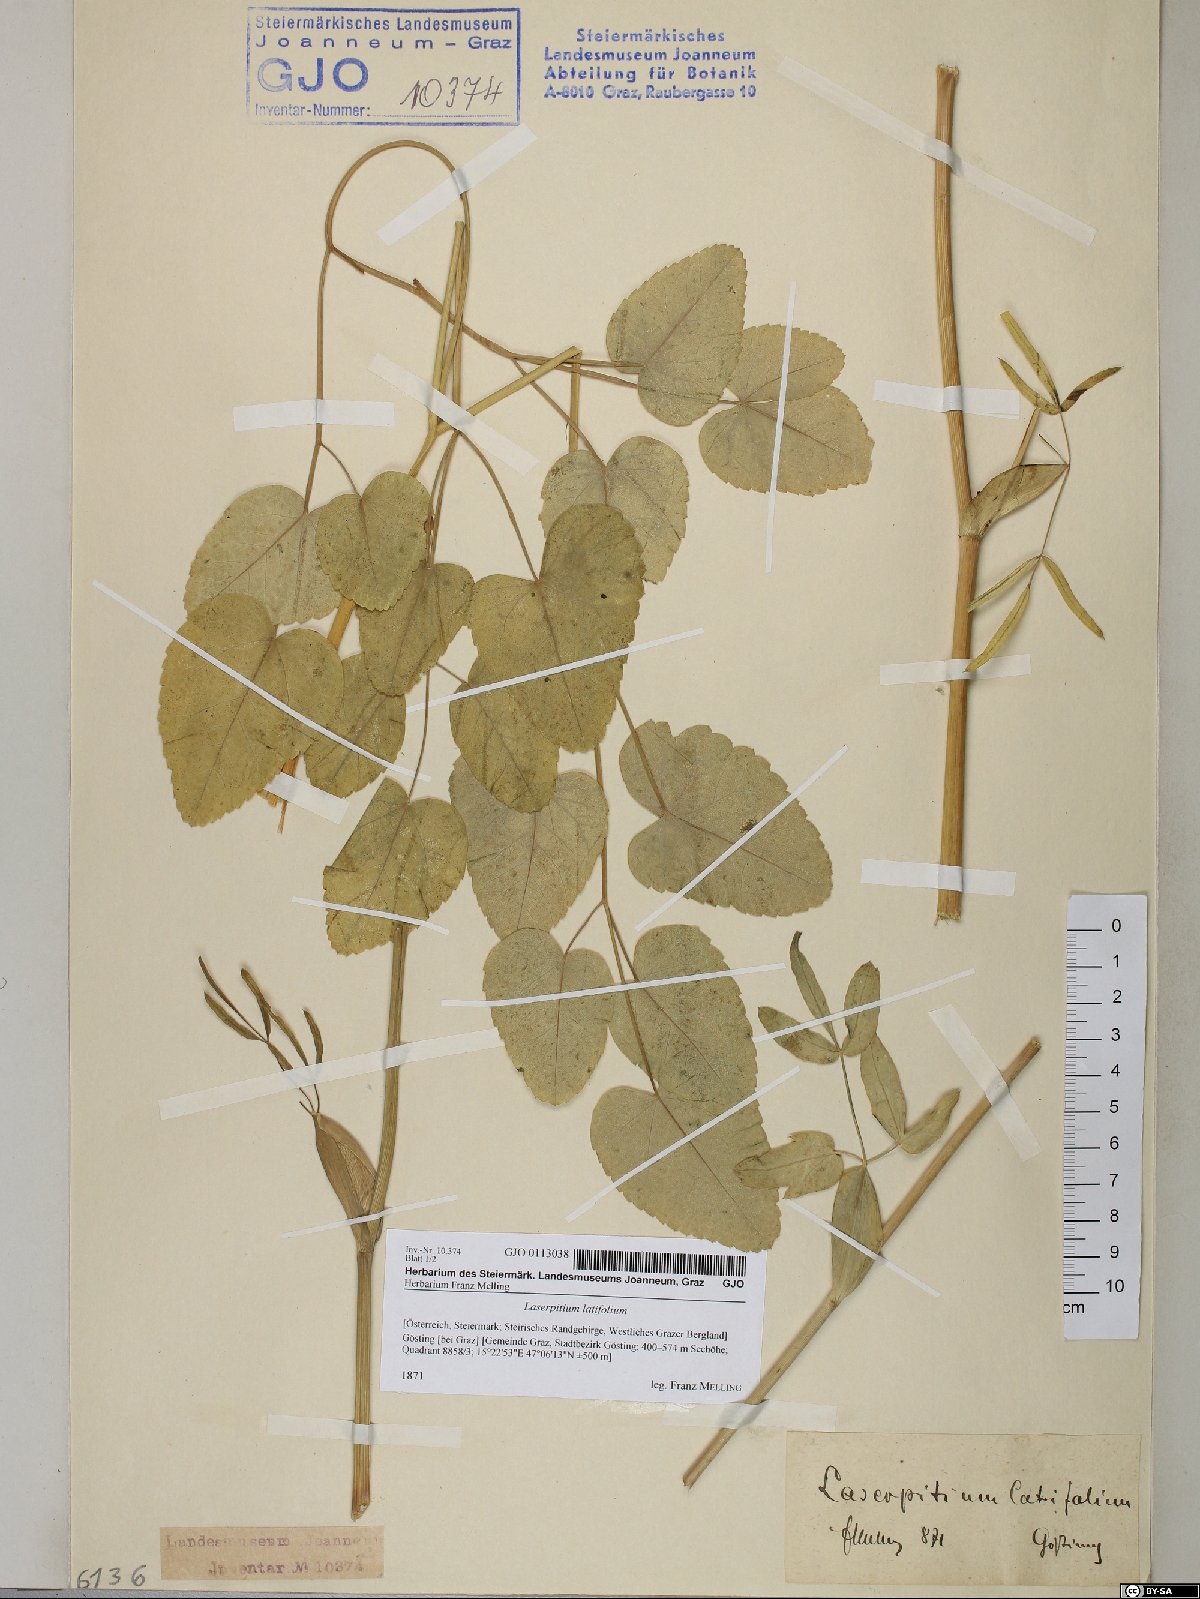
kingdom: Plantae
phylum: Tracheophyta
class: Magnoliopsida
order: Apiales
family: Apiaceae
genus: Laserpitium
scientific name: Laserpitium latifolium
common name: Broadleaf sermountain
